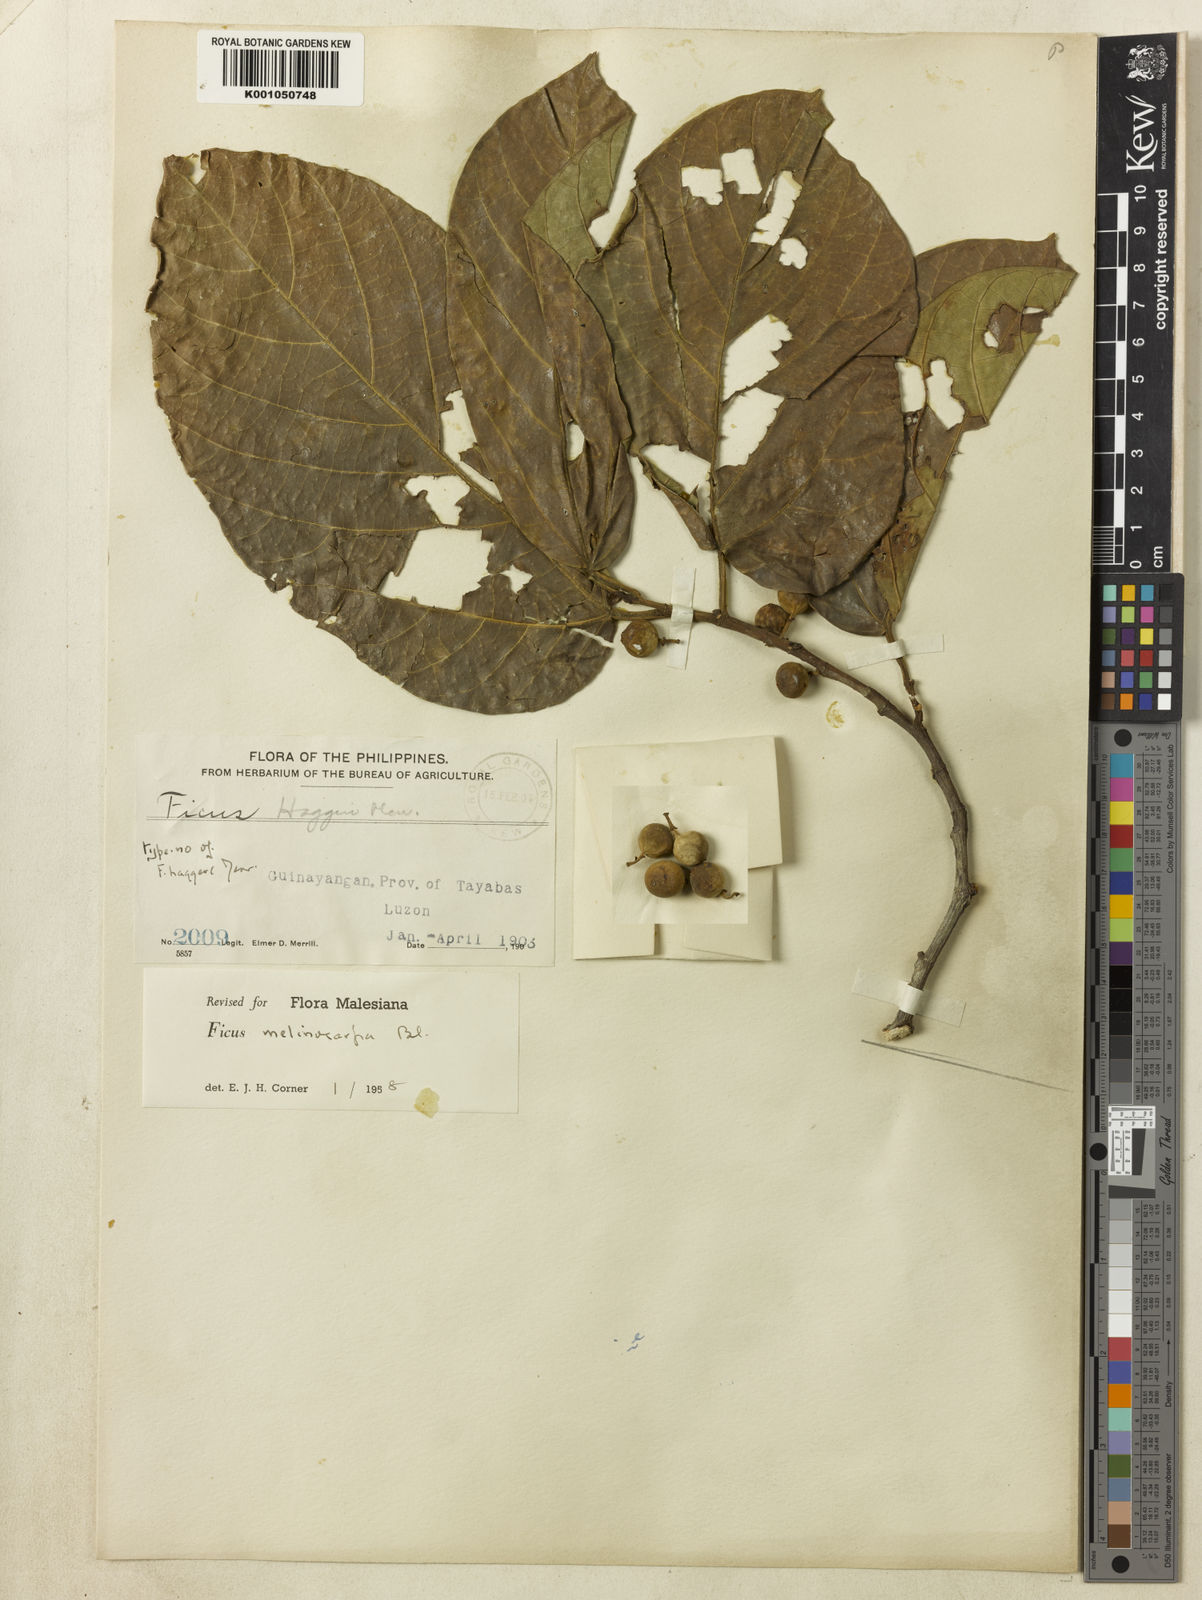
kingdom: Plantae
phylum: Tracheophyta
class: Magnoliopsida
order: Rosales
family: Moraceae
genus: Ficus
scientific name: Ficus melinocarpa
